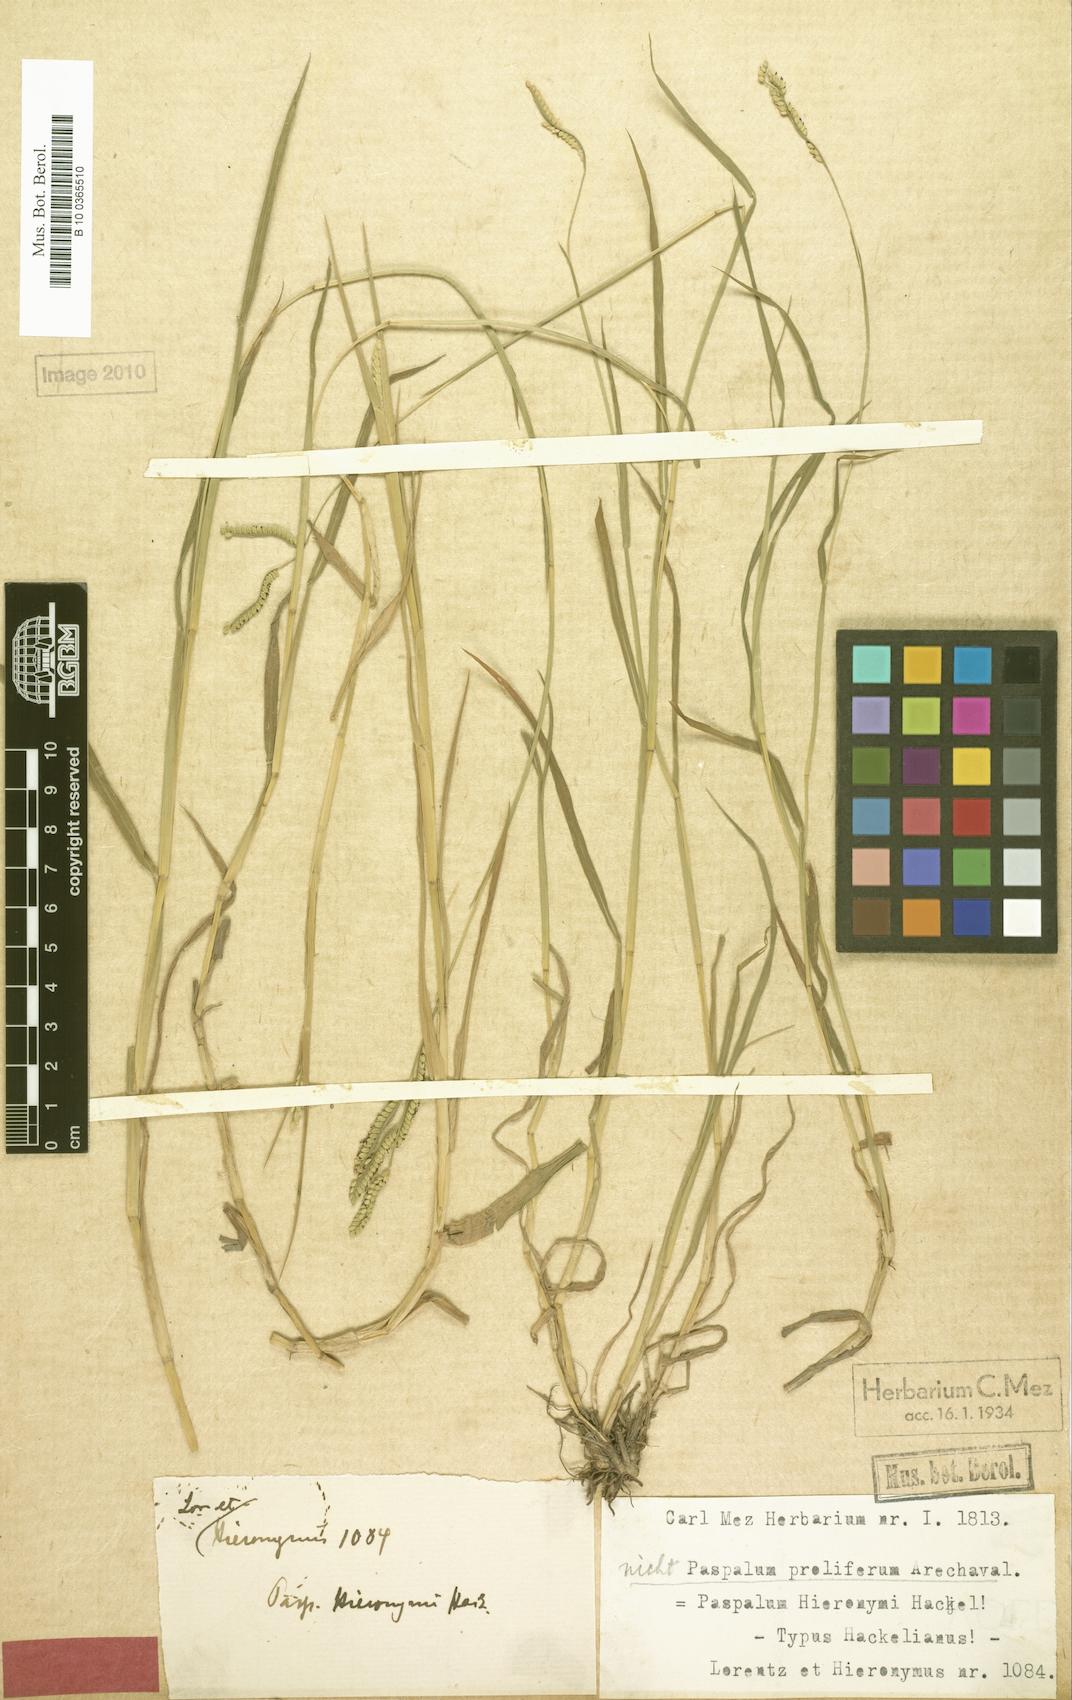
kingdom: Plantae
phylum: Tracheophyta
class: Liliopsida
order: Poales
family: Poaceae
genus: Paspalum
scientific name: Paspalum denticulatum
